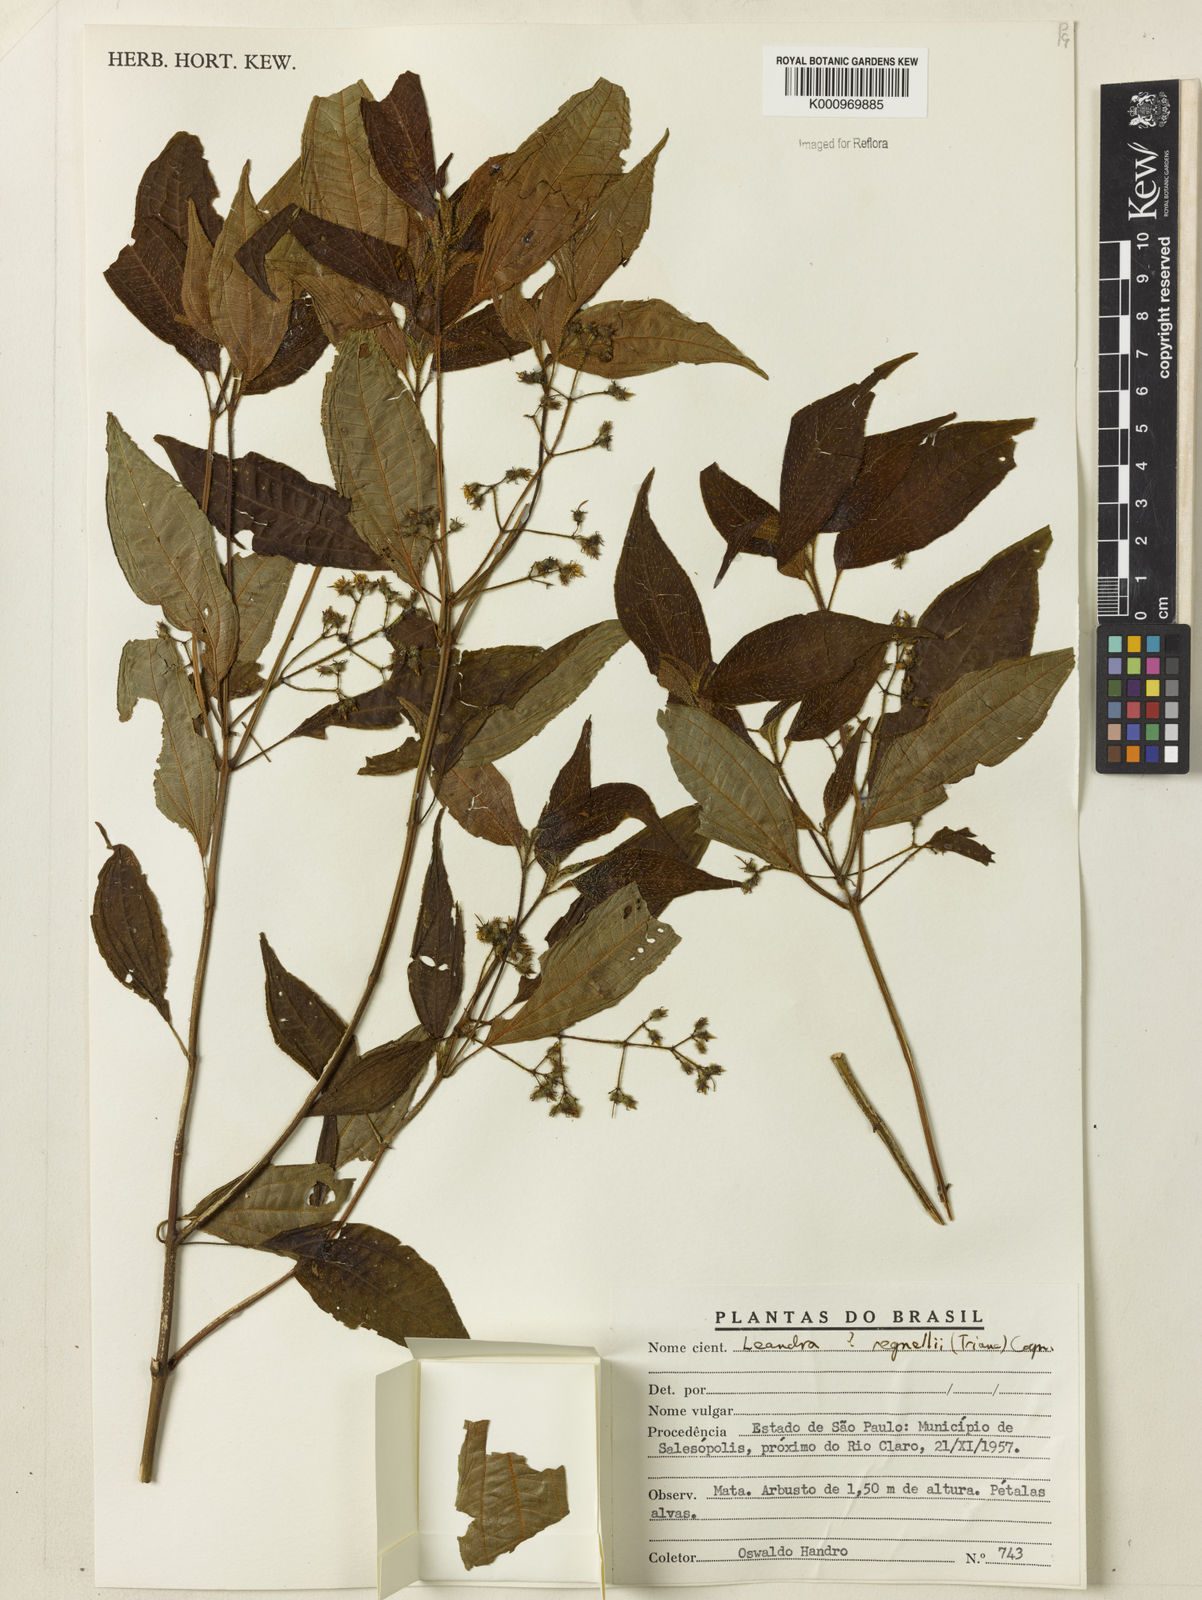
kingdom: Plantae
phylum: Tracheophyta
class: Magnoliopsida
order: Myrtales
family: Melastomataceae
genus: Miconia
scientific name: Miconia
